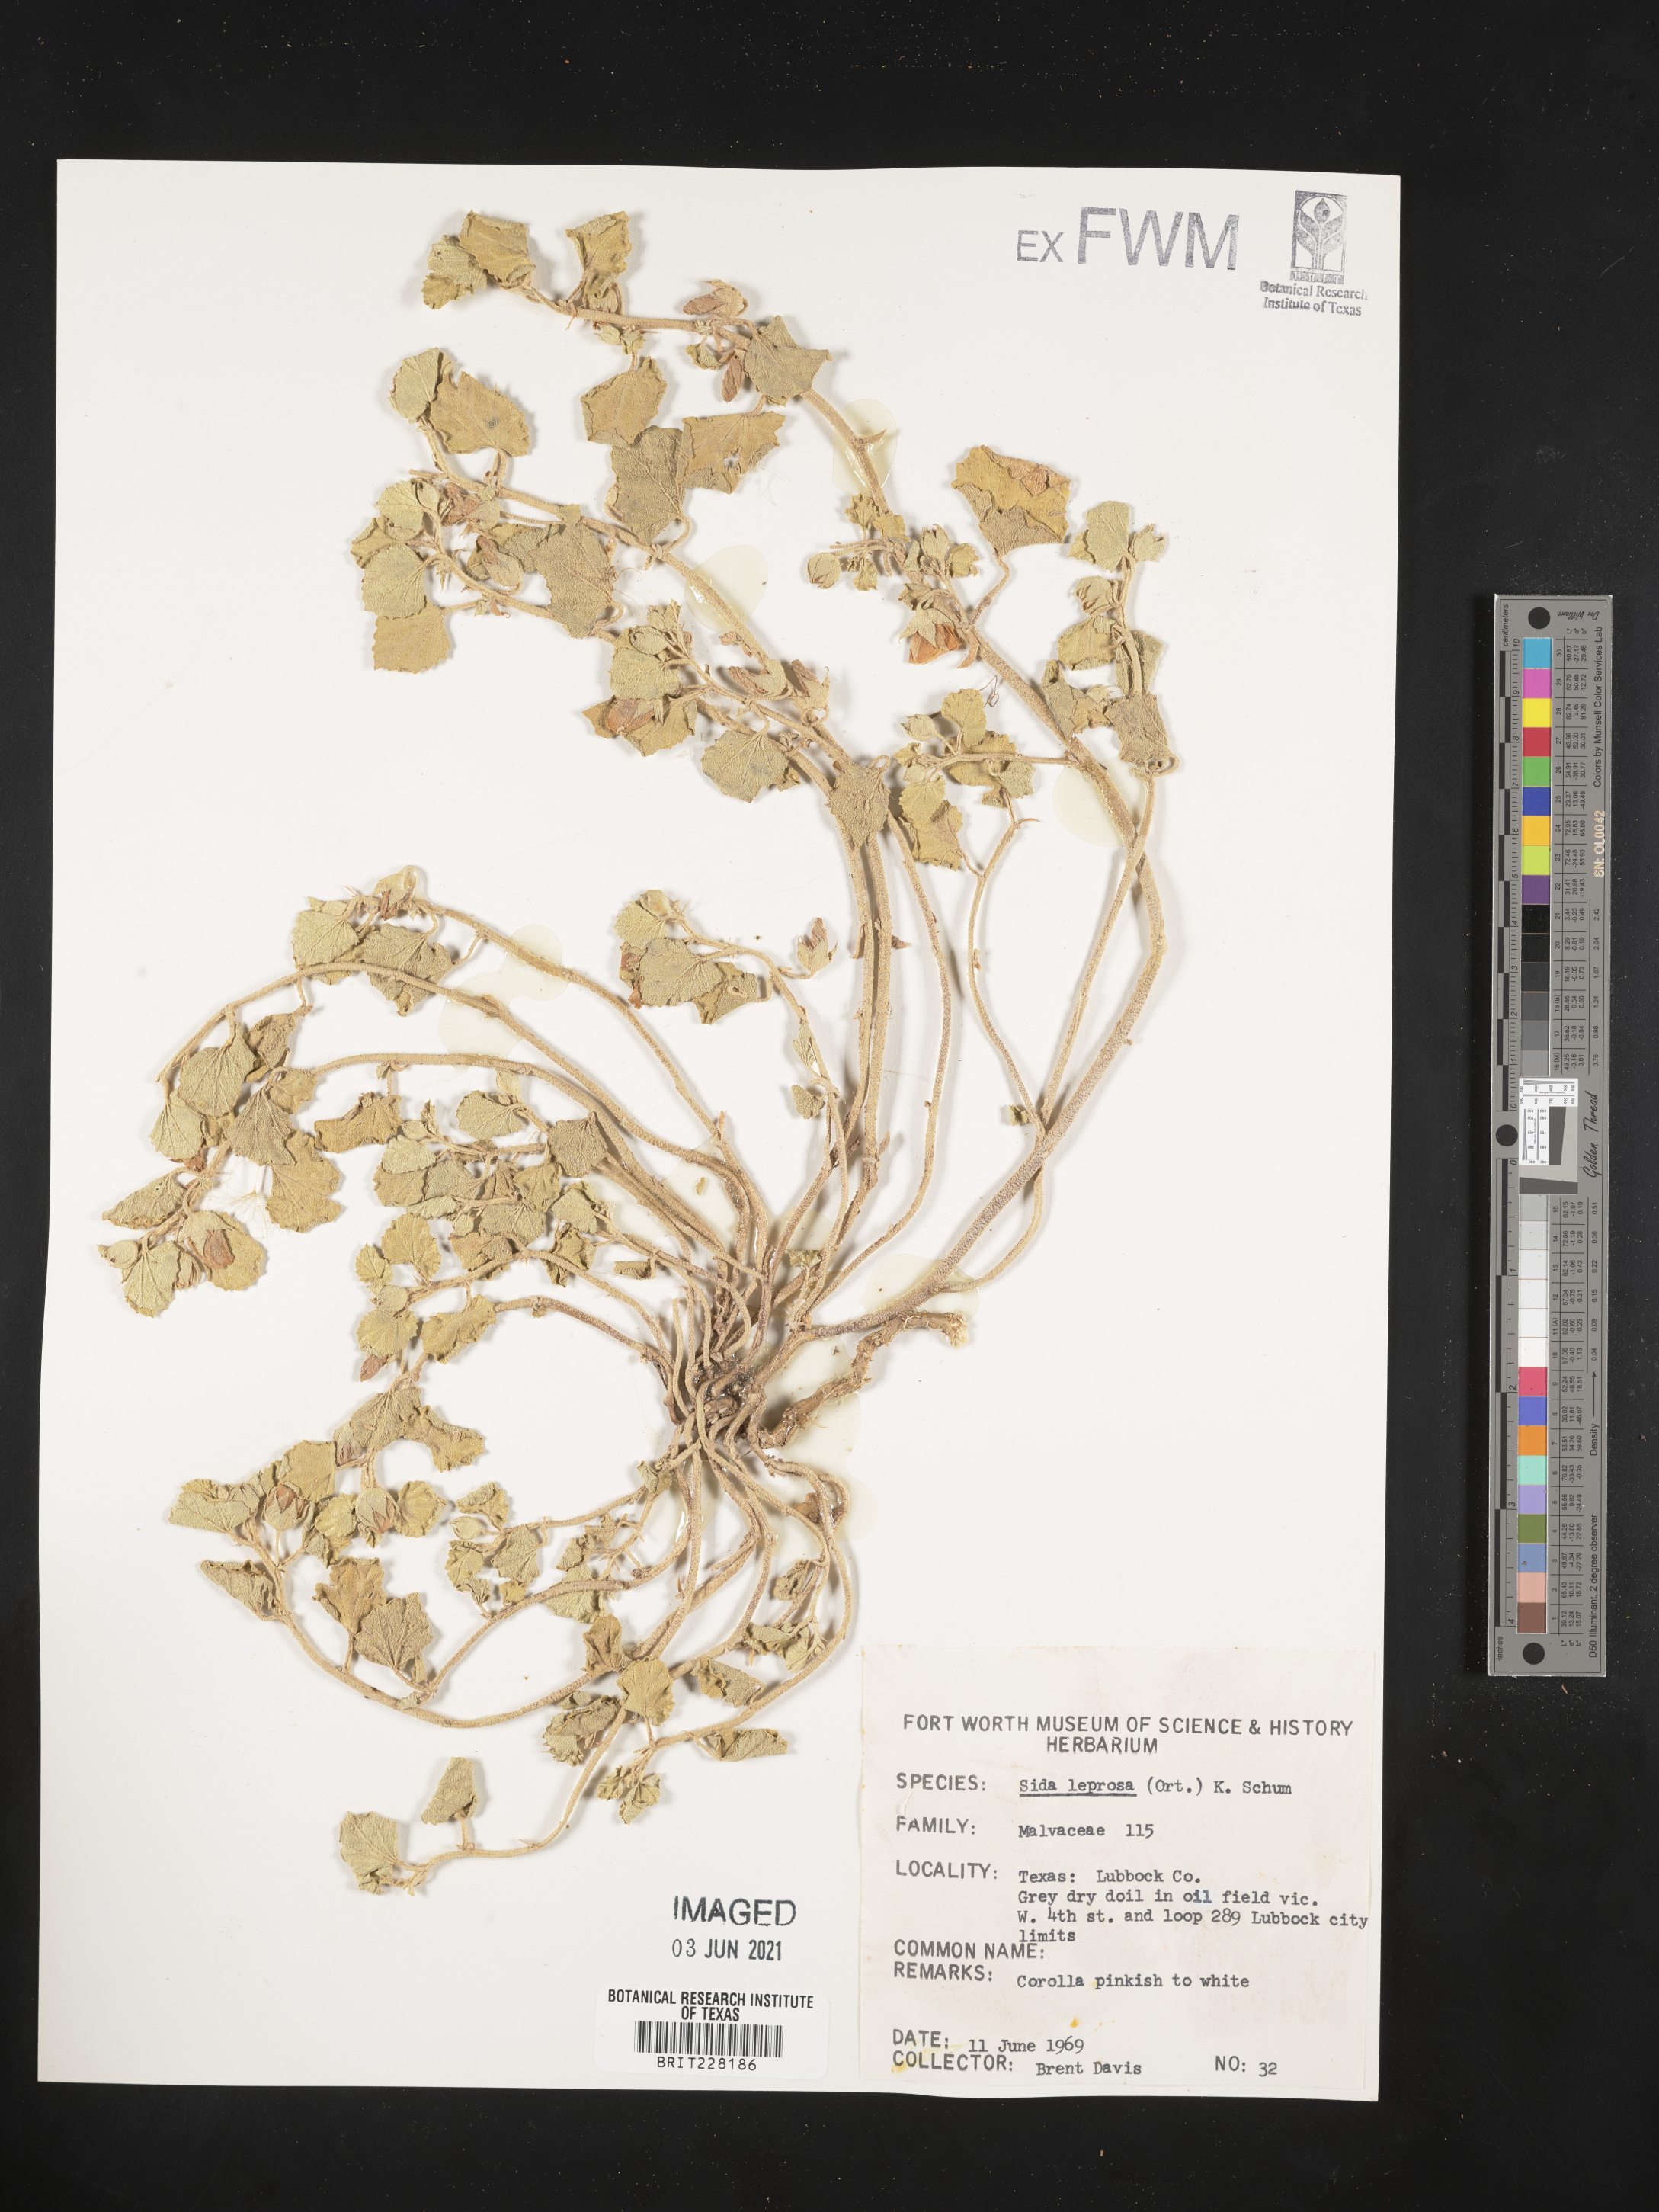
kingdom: Plantae
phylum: Tracheophyta
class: Magnoliopsida
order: Malvales
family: Malvaceae
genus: Malvella
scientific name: Malvella leprosa
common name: Alkali-mallow
